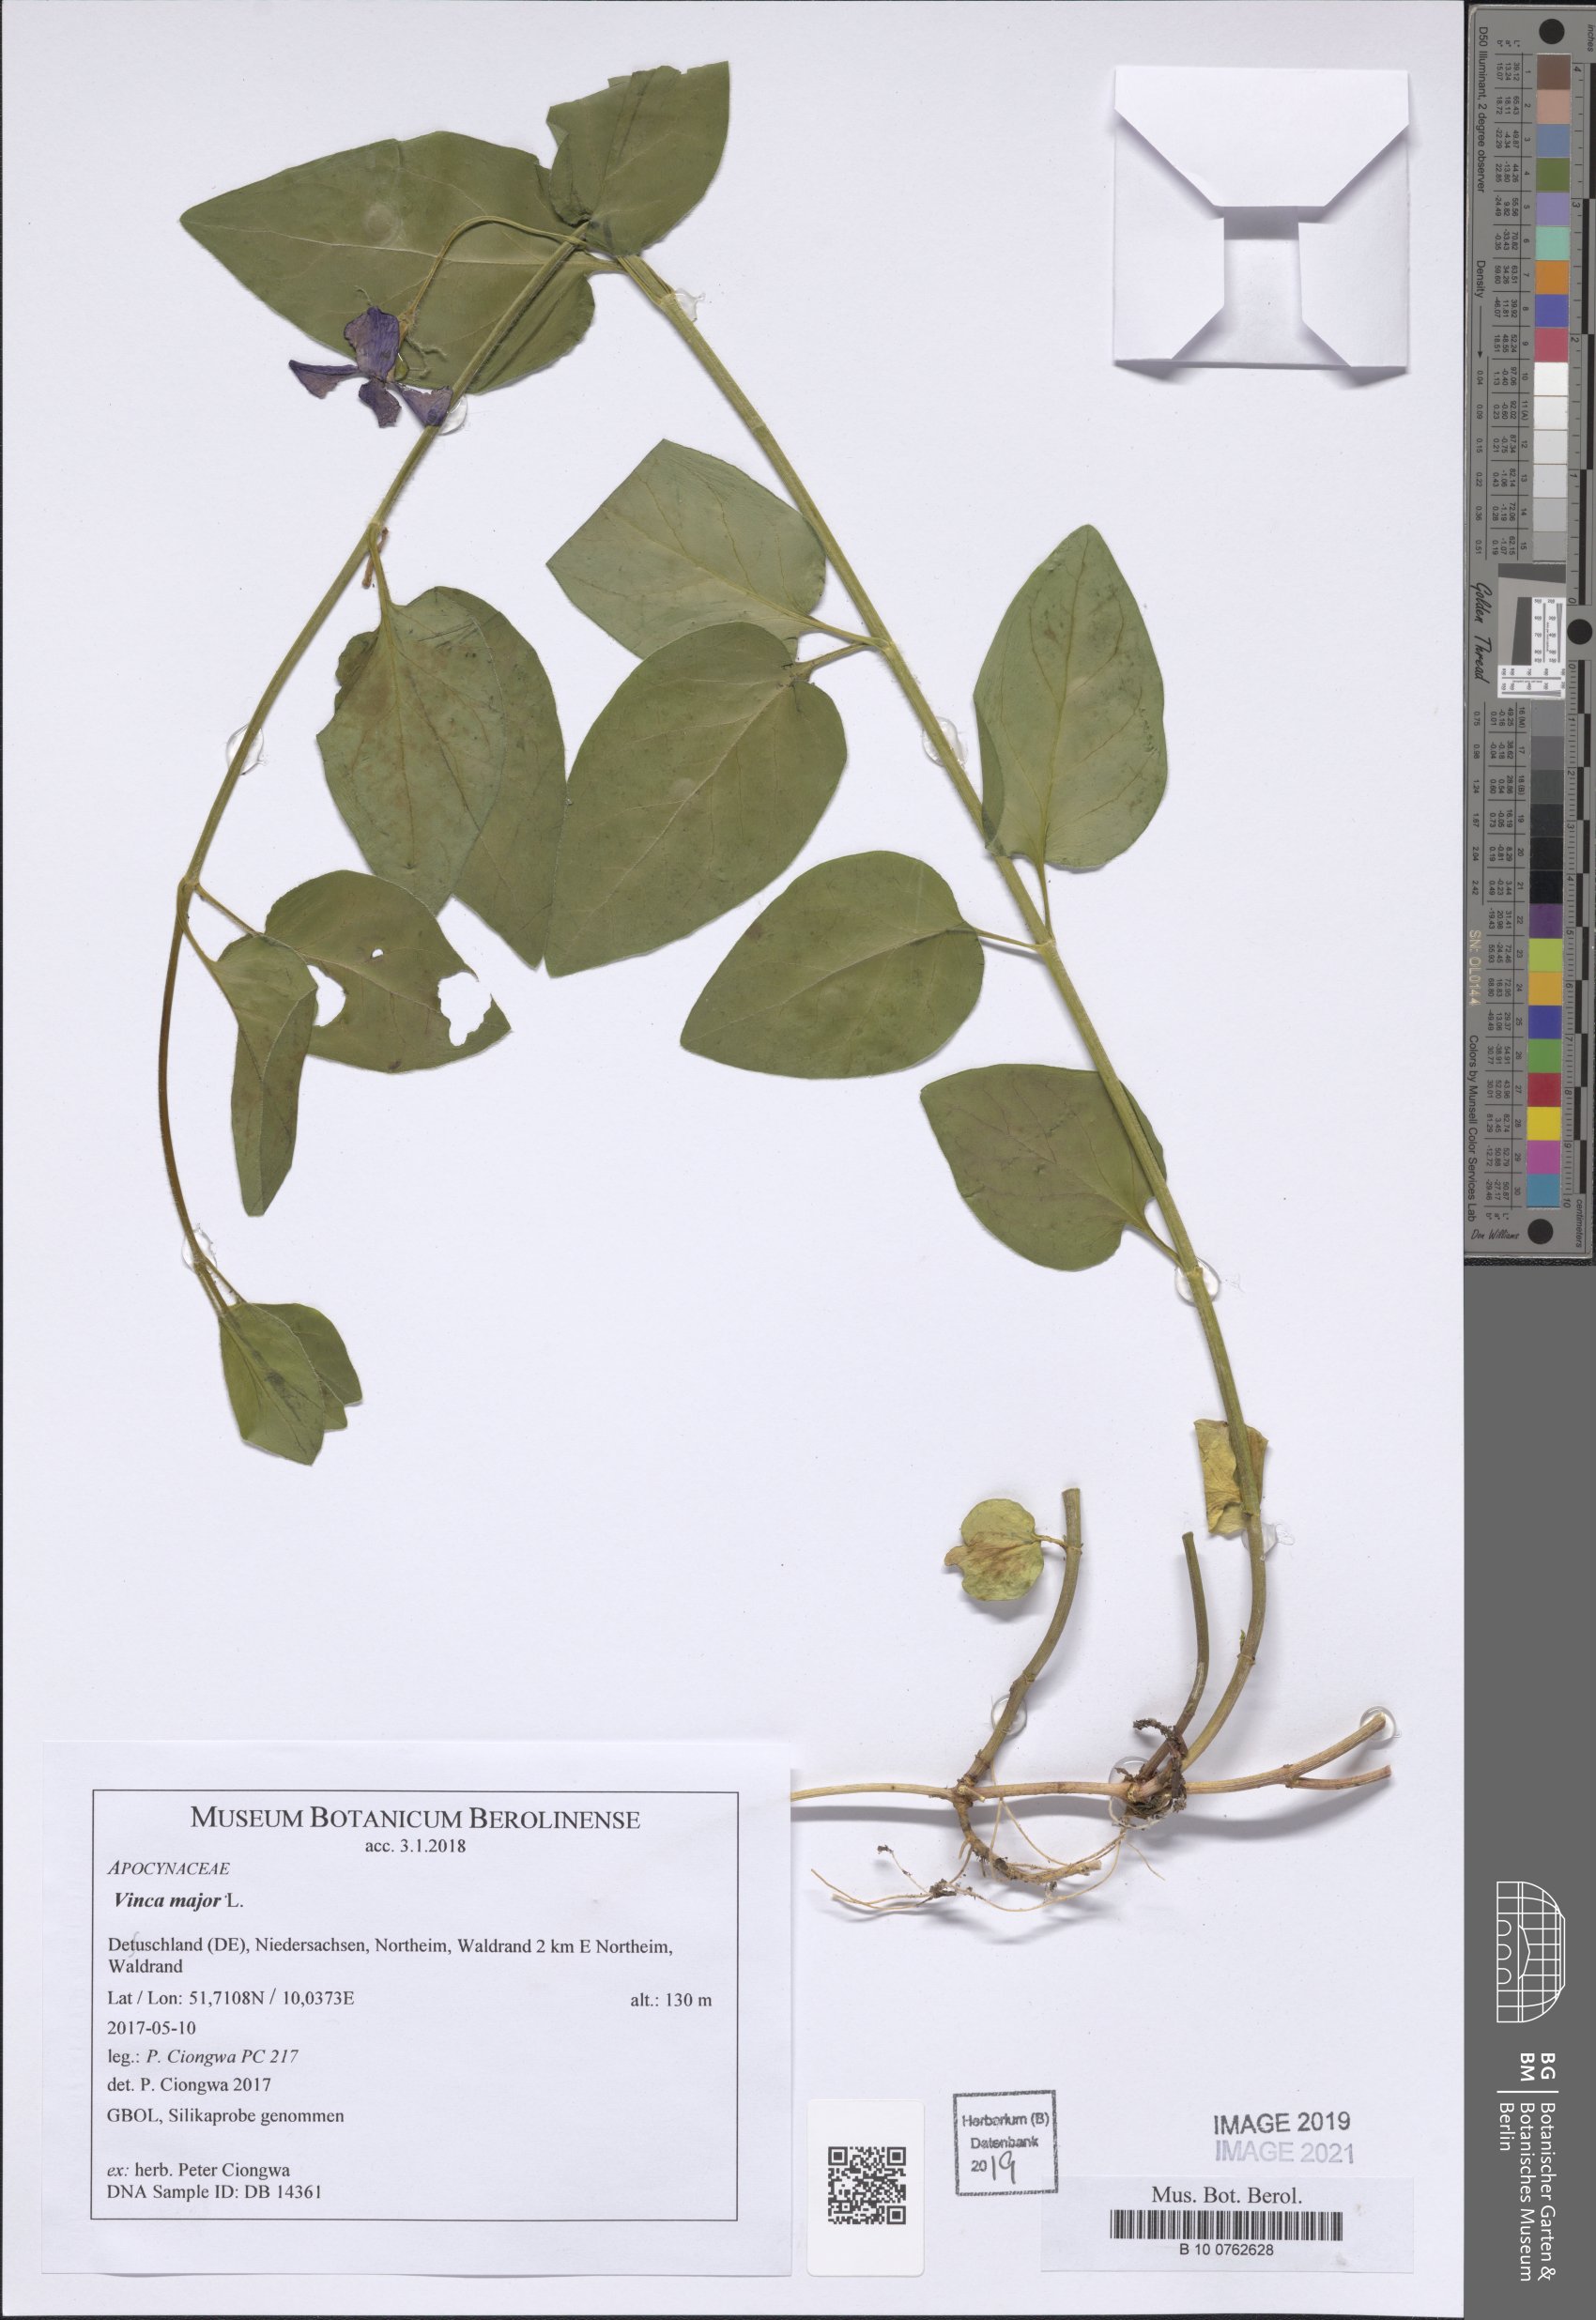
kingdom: Plantae
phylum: Tracheophyta
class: Magnoliopsida
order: Gentianales
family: Apocynaceae
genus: Vinca
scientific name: Vinca major
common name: Greater periwinkle
